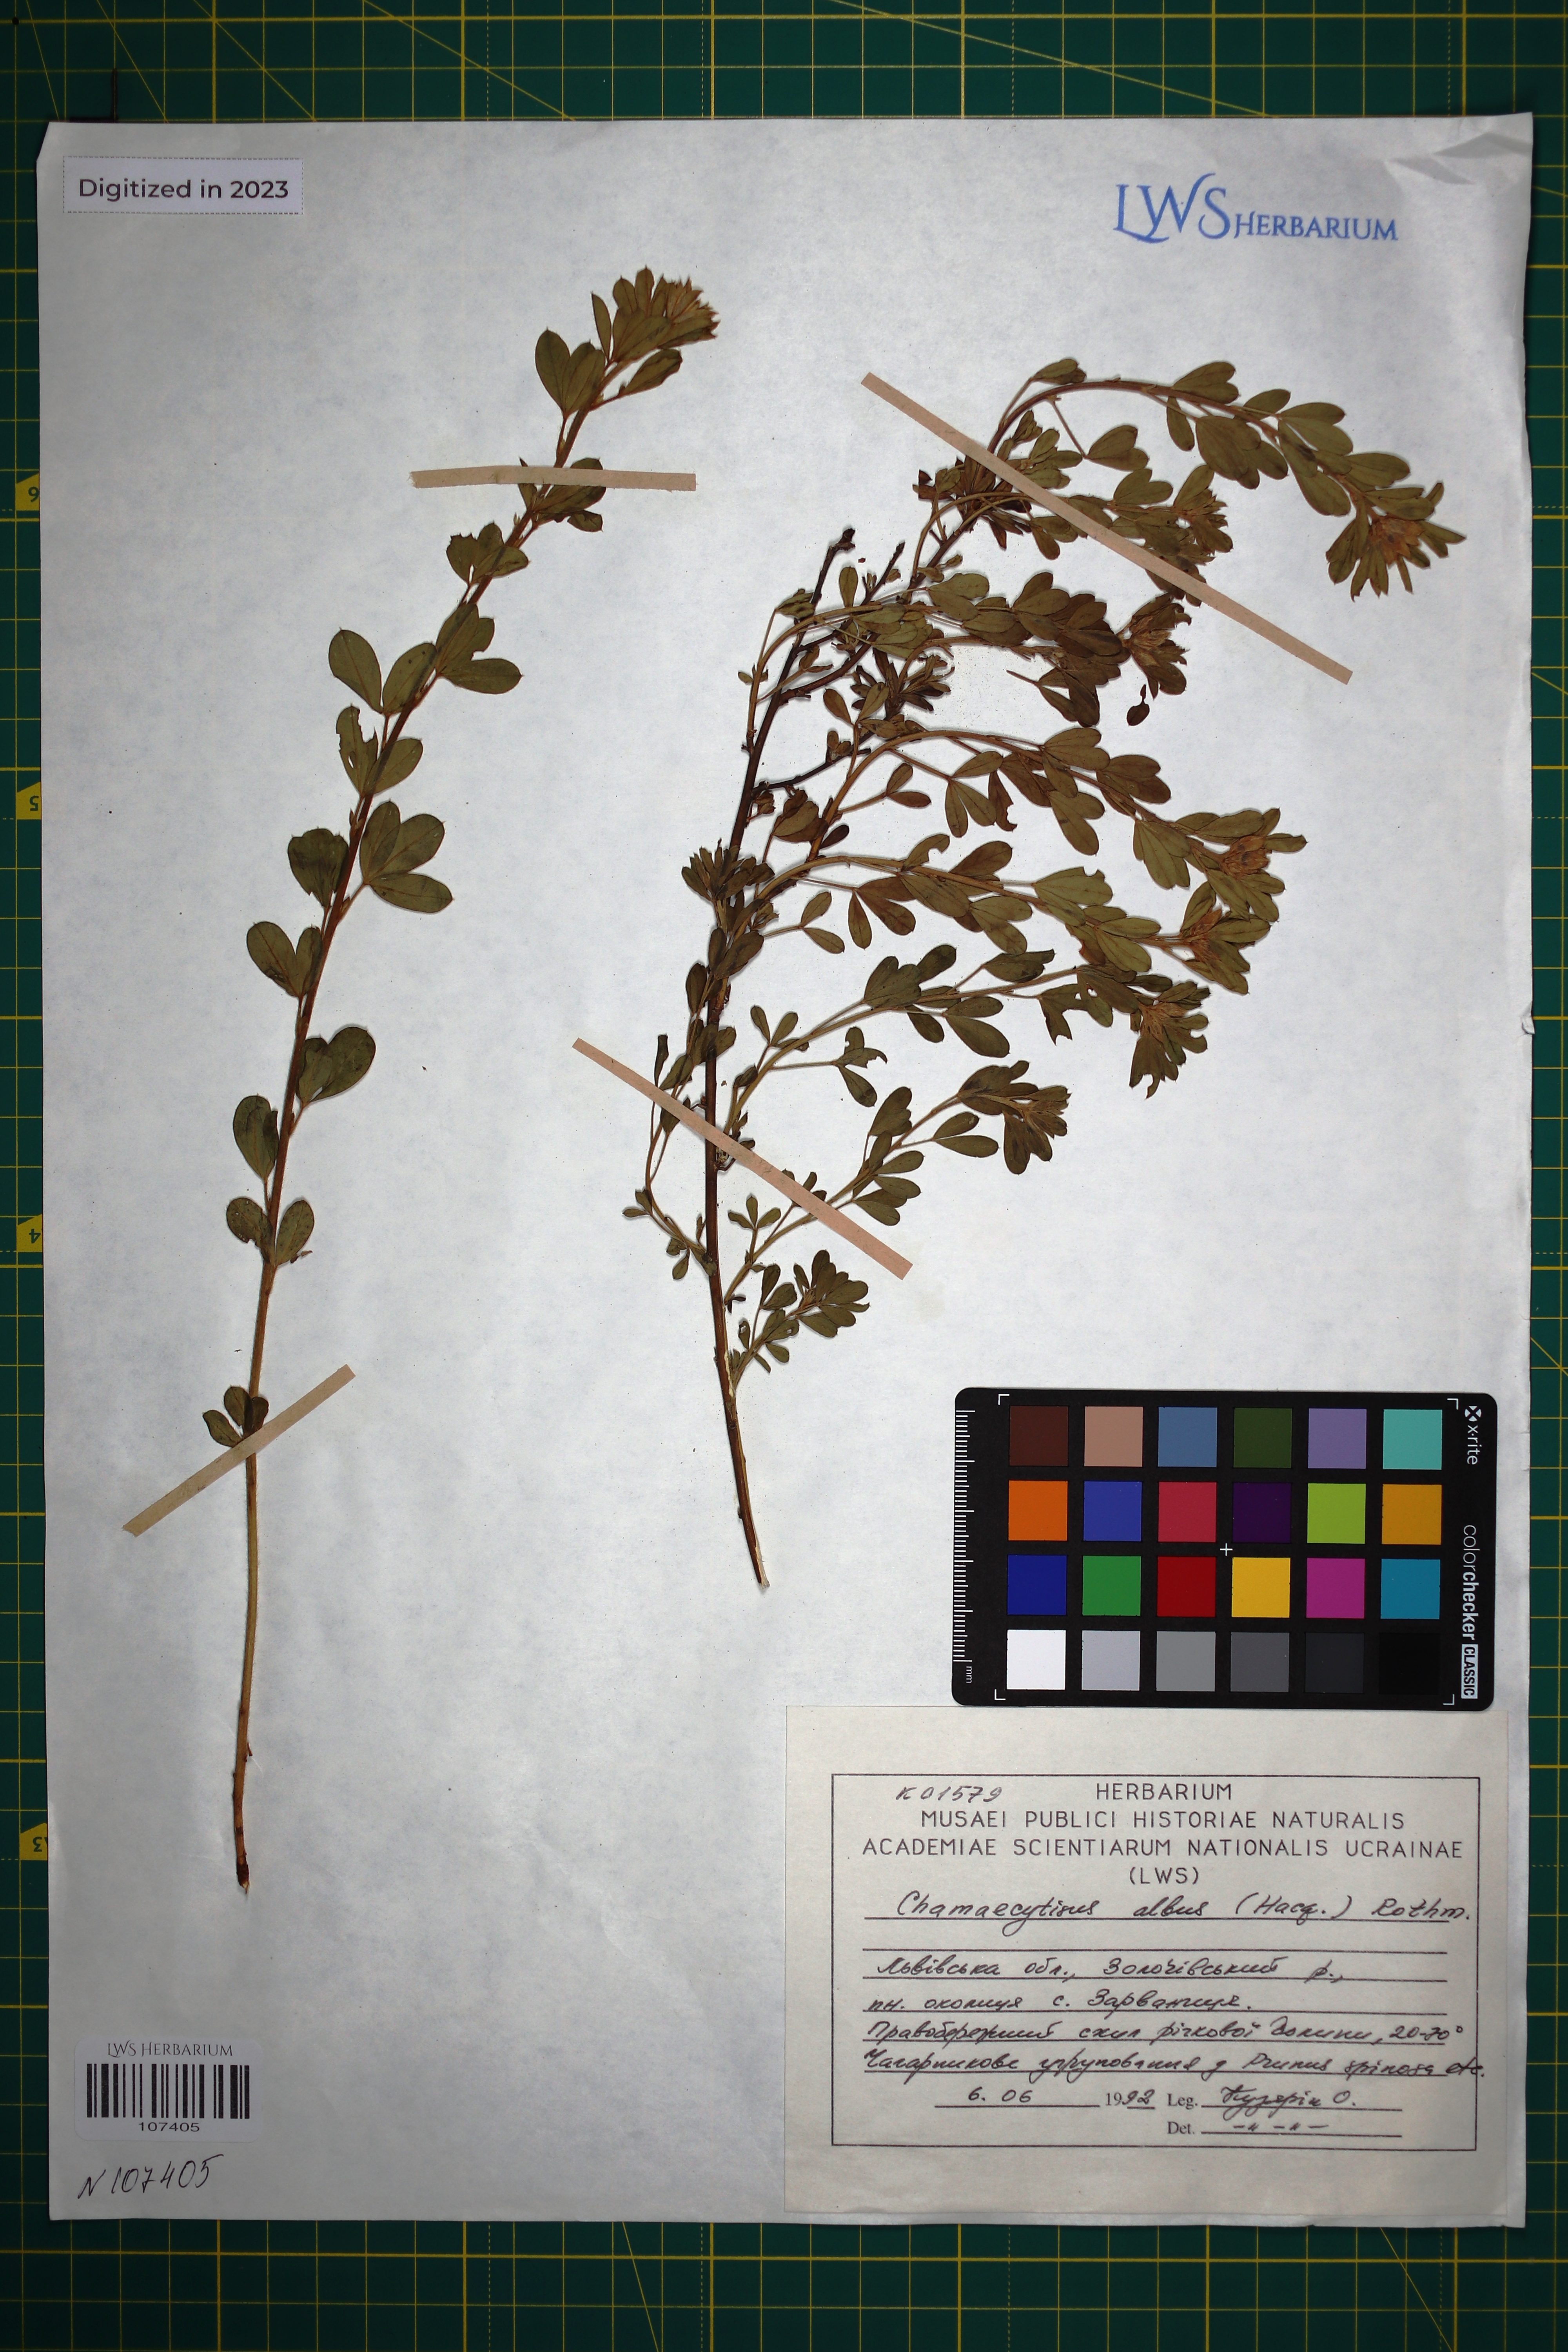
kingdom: Plantae
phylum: Tracheophyta
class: Magnoliopsida
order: Fabales
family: Fabaceae
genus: Chamaecytisus
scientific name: Chamaecytisus albus
